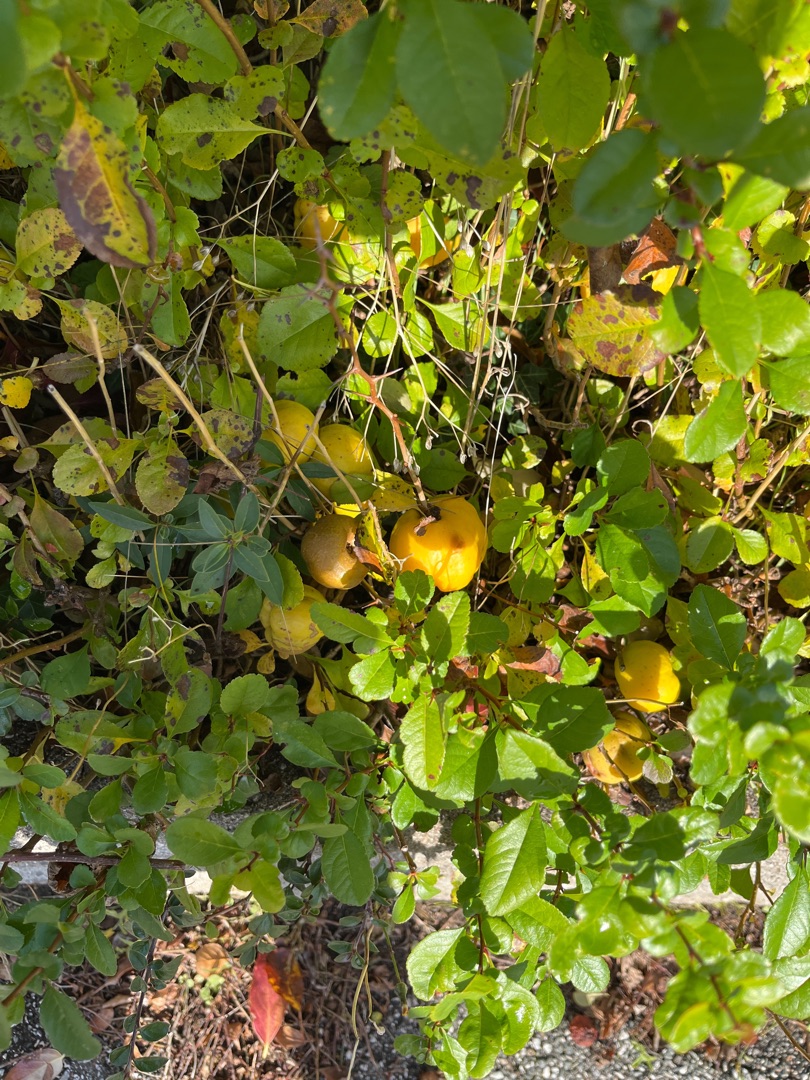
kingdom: Plantae
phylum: Tracheophyta
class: Magnoliopsida
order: Rosales
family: Rosaceae
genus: Chaenomeles
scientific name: Chaenomeles japonica
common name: Lille japankvæde
